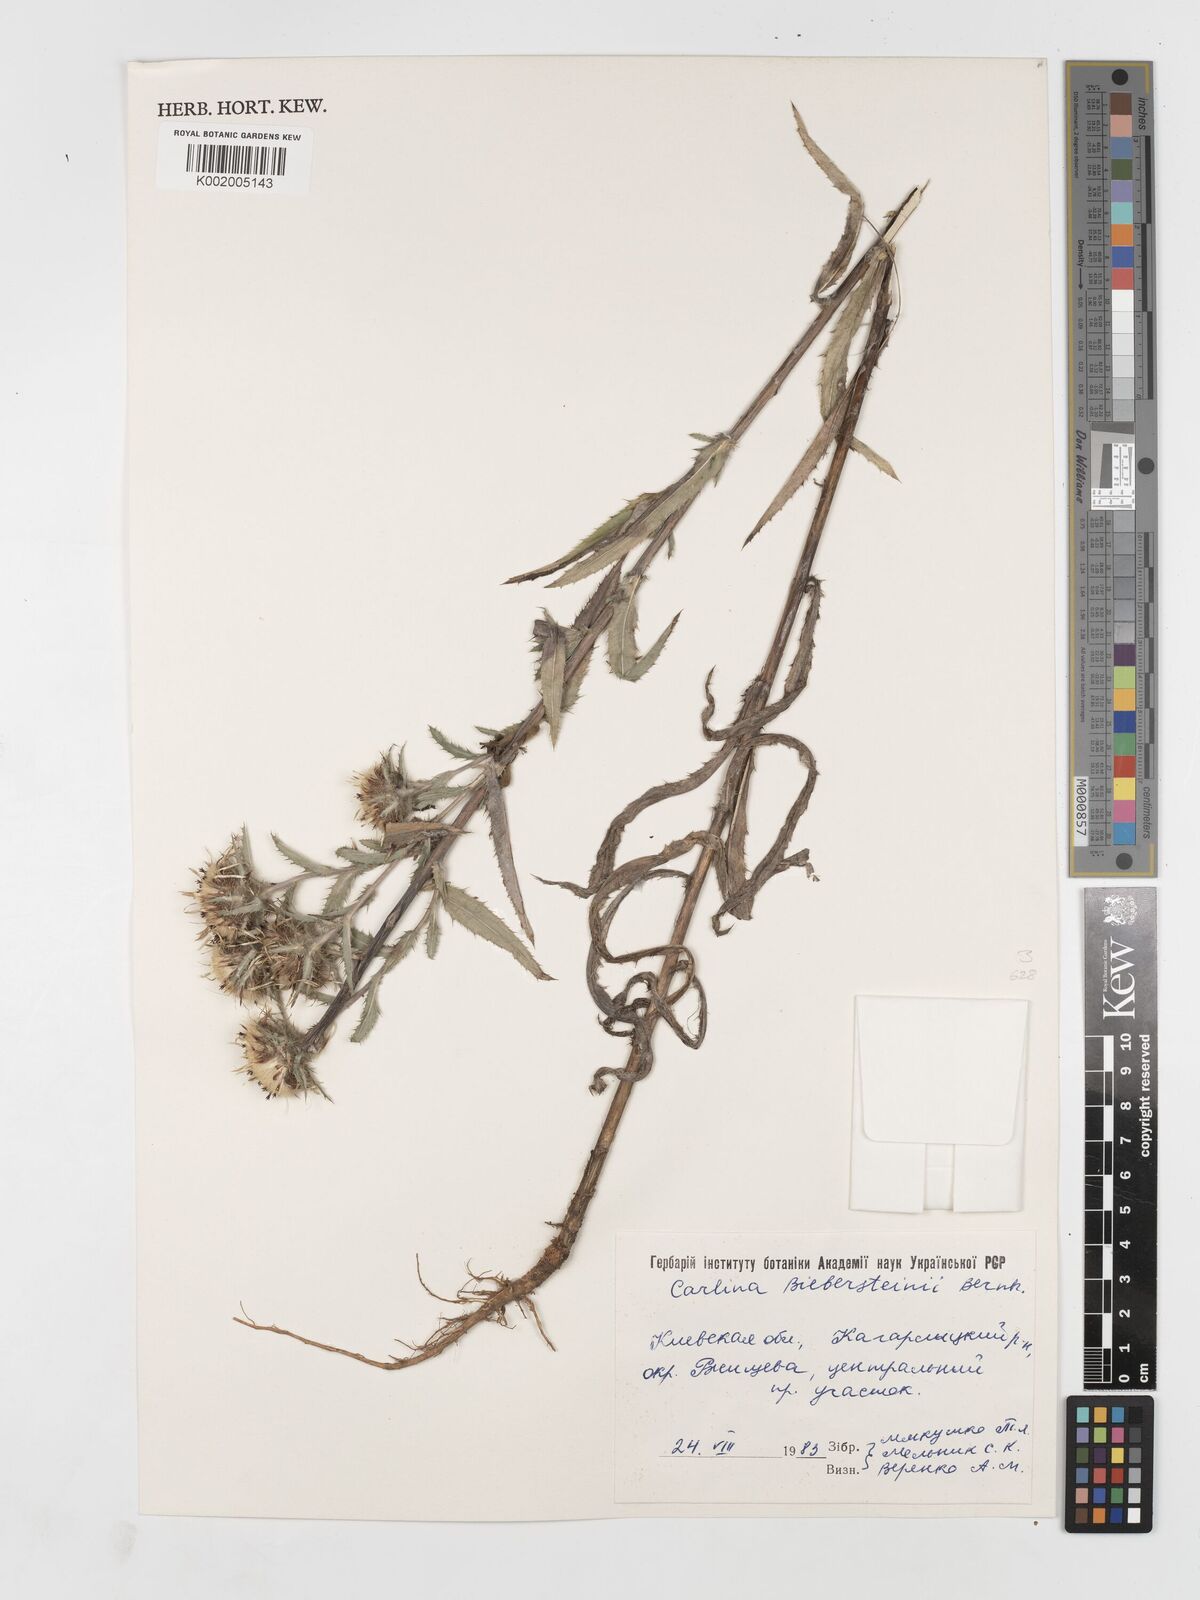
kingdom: Plantae
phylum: Tracheophyta
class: Magnoliopsida
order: Asterales
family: Asteraceae
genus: Carlina
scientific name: Carlina biebersteinii
